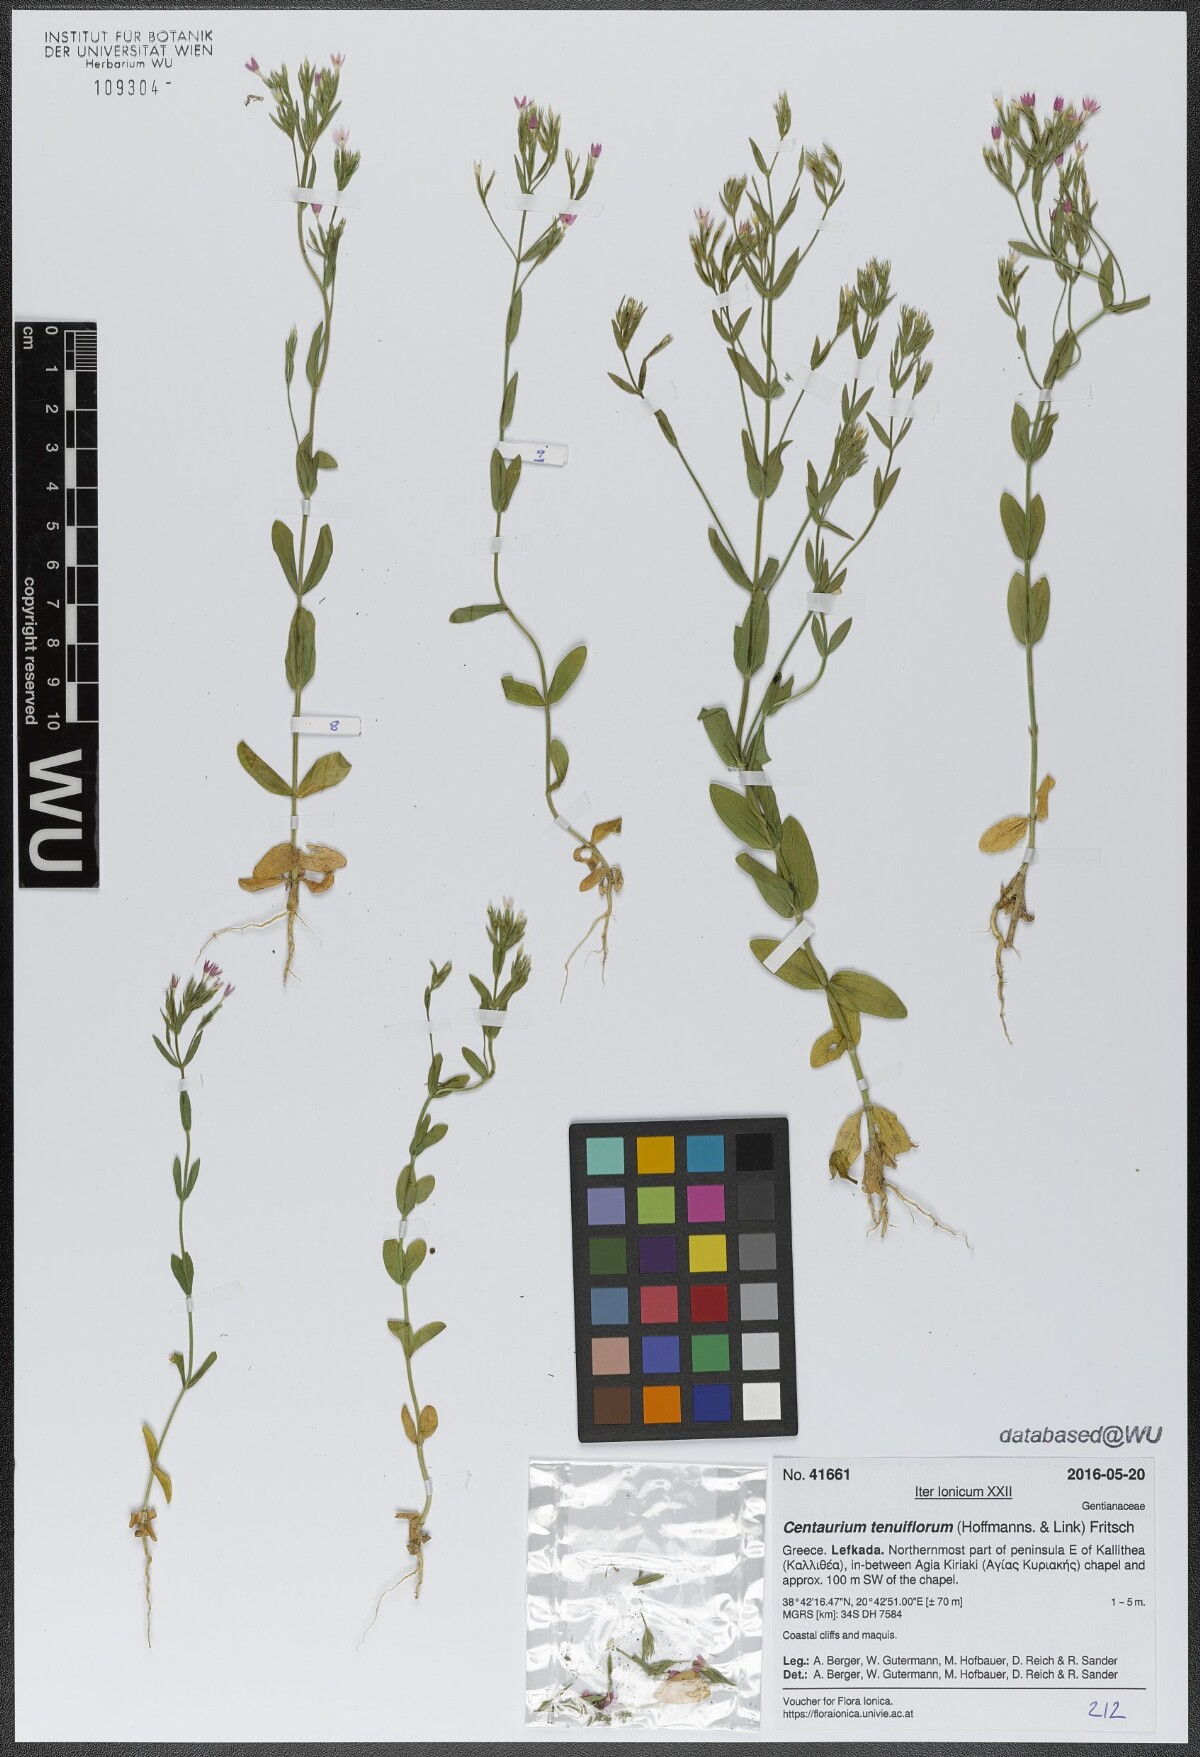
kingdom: Plantae
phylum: Tracheophyta
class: Magnoliopsida
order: Gentianales
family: Gentianaceae
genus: Centaurium
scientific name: Centaurium tenuiflorum
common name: Slender centaury
